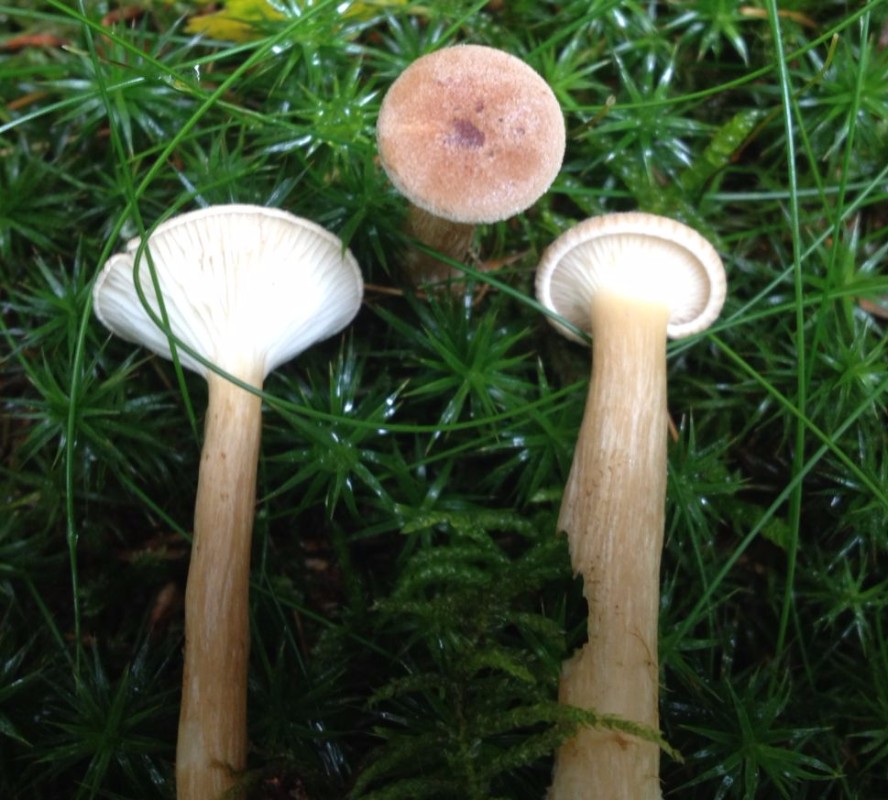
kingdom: Fungi
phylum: Basidiomycota
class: Agaricomycetes
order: Agaricales
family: Tricholomataceae
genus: Infundibulicybe
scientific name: Infundibulicybe
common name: tragthat
